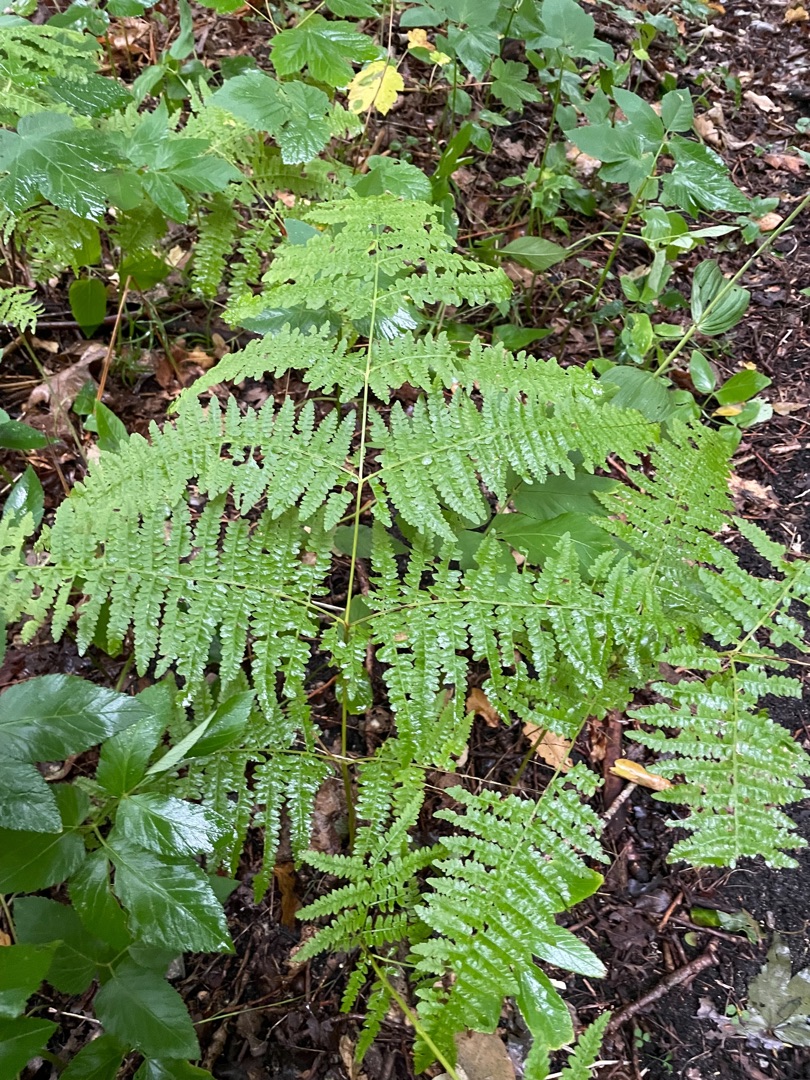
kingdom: Plantae
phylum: Tracheophyta
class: Polypodiopsida
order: Polypodiales
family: Dennstaedtiaceae
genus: Pteridium
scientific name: Pteridium aquilinum
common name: Ørnebregne
